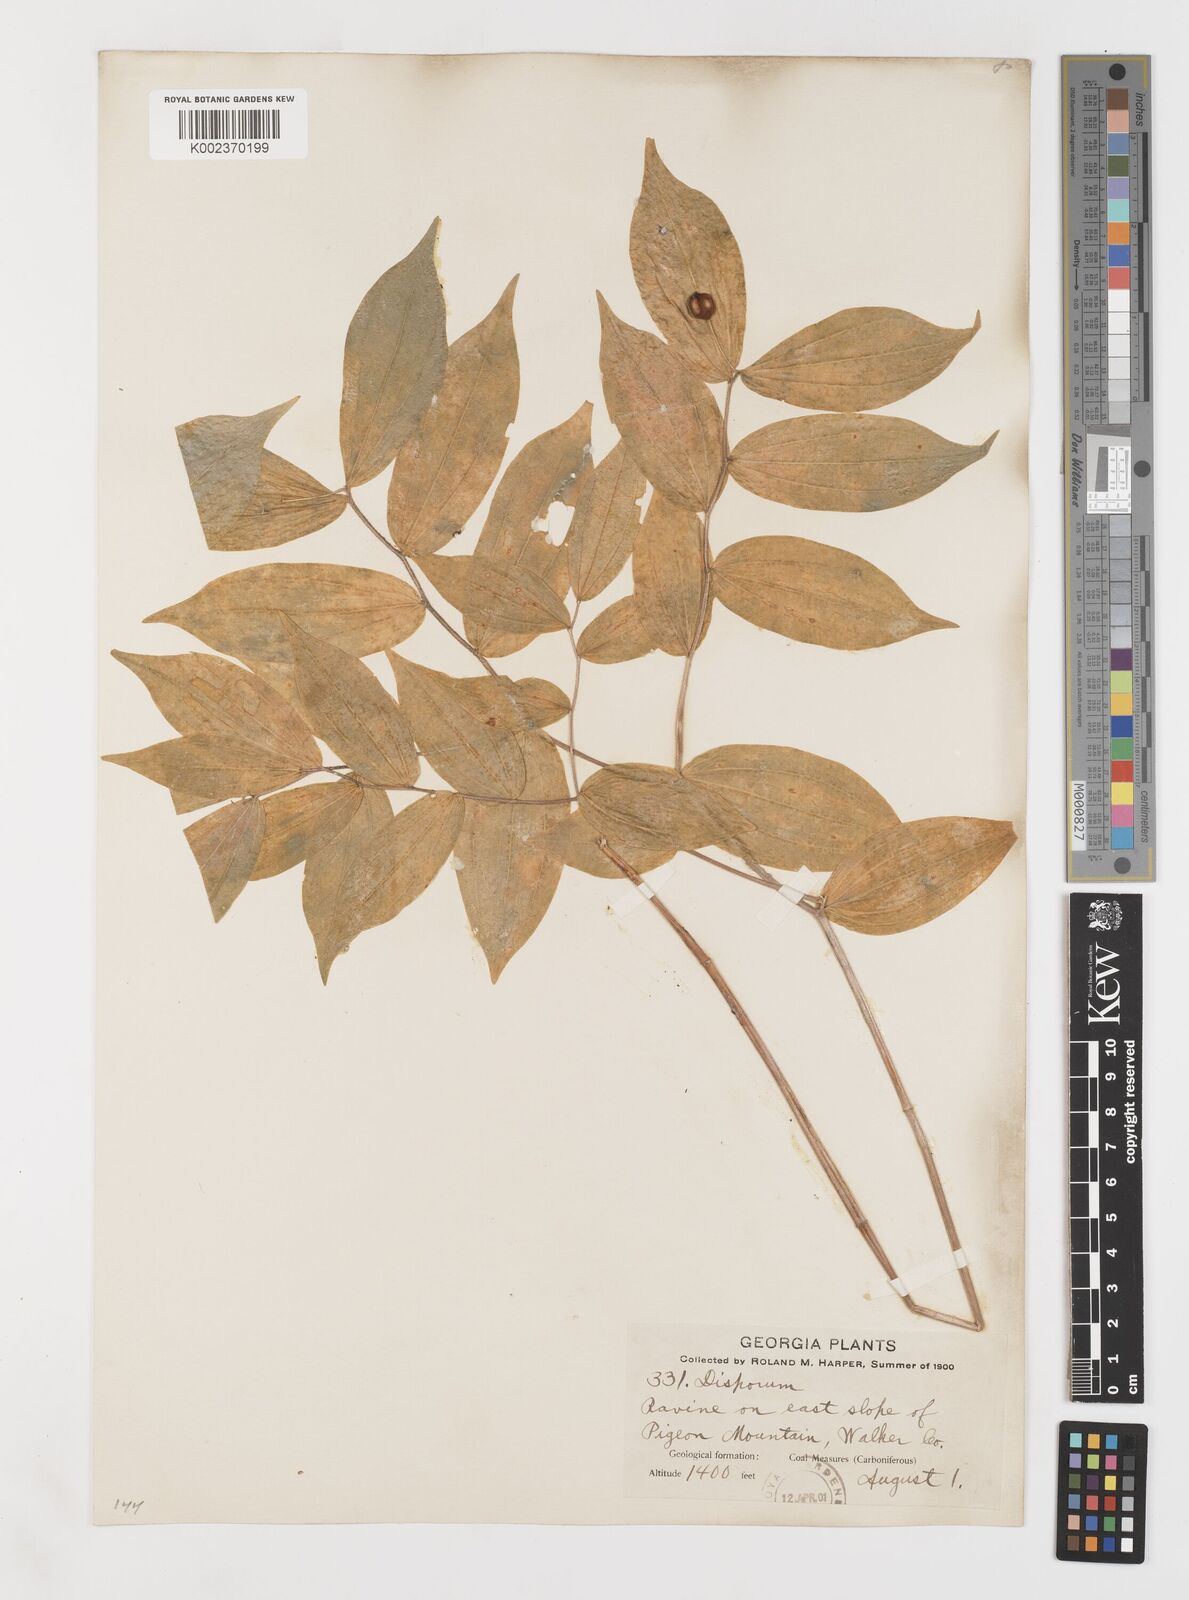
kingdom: Plantae
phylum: Tracheophyta
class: Liliopsida
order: Liliales
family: Liliaceae
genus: Prosartes
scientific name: Prosartes lanuginosa
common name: Hairy mandarin
